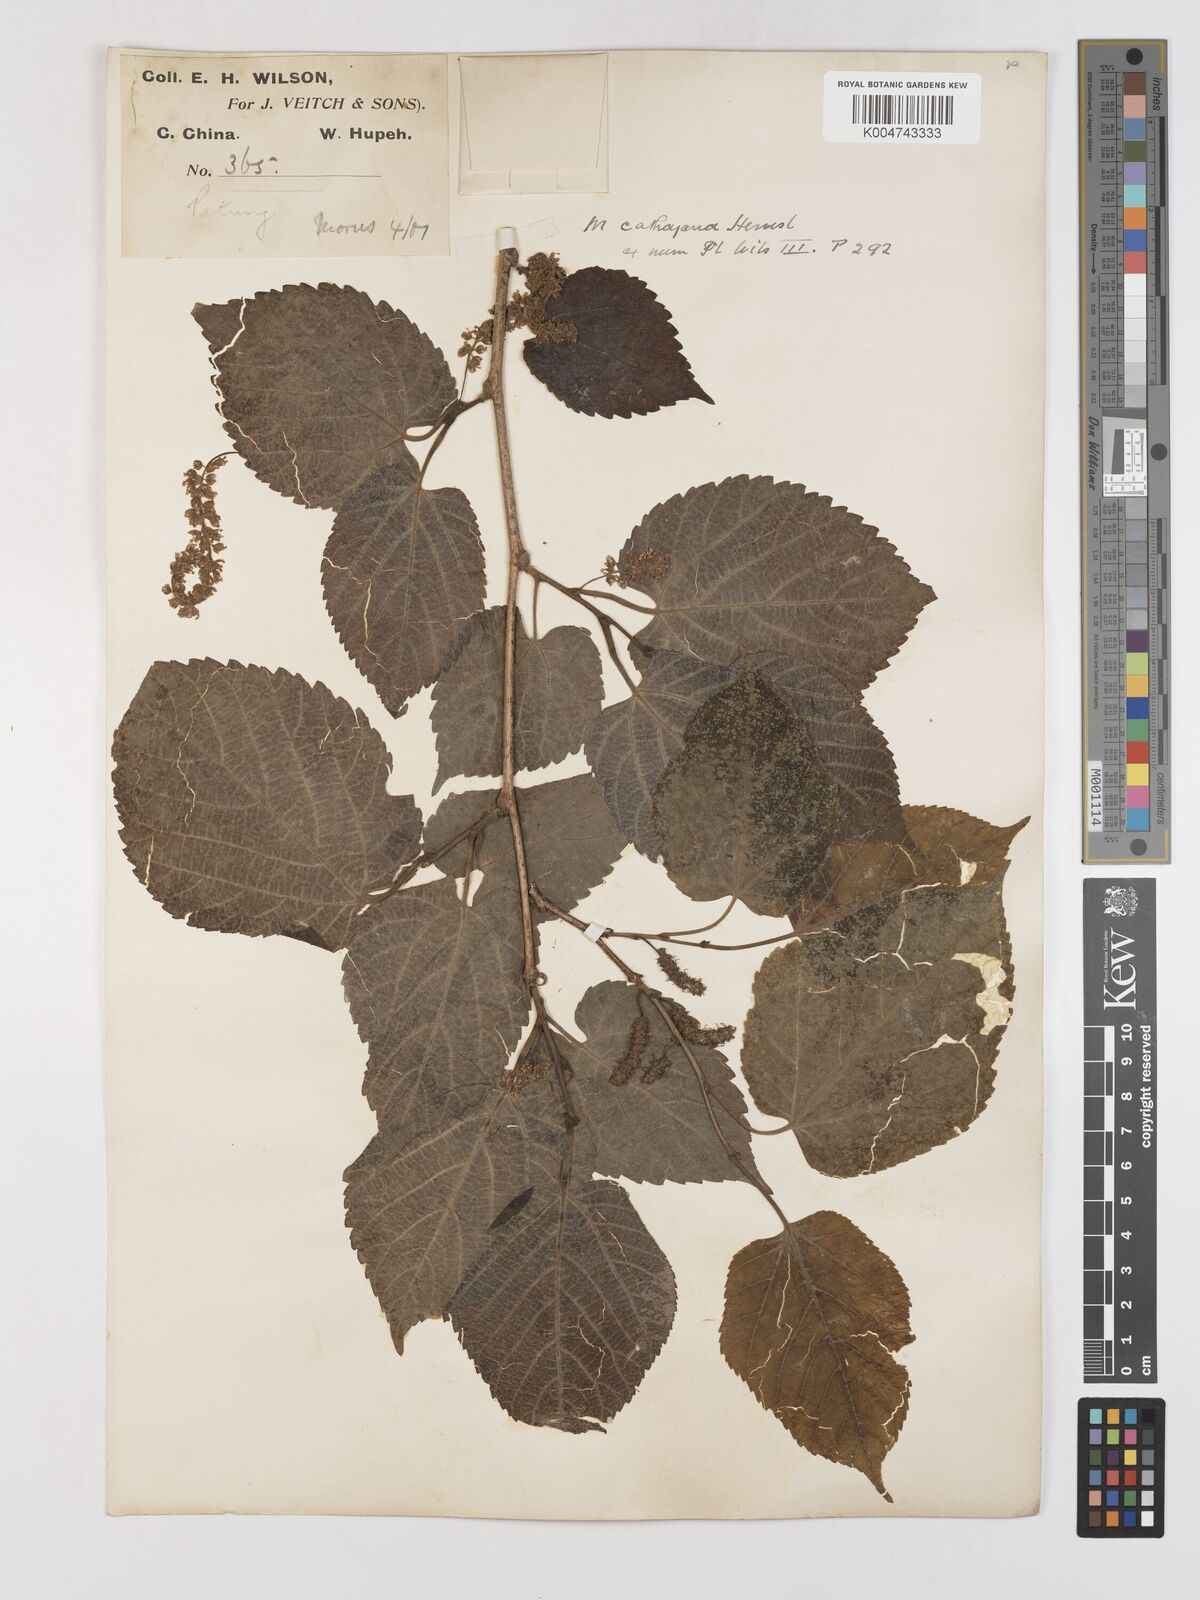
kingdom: Plantae
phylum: Tracheophyta
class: Magnoliopsida
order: Rosales
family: Moraceae
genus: Morus
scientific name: Morus cathayana
